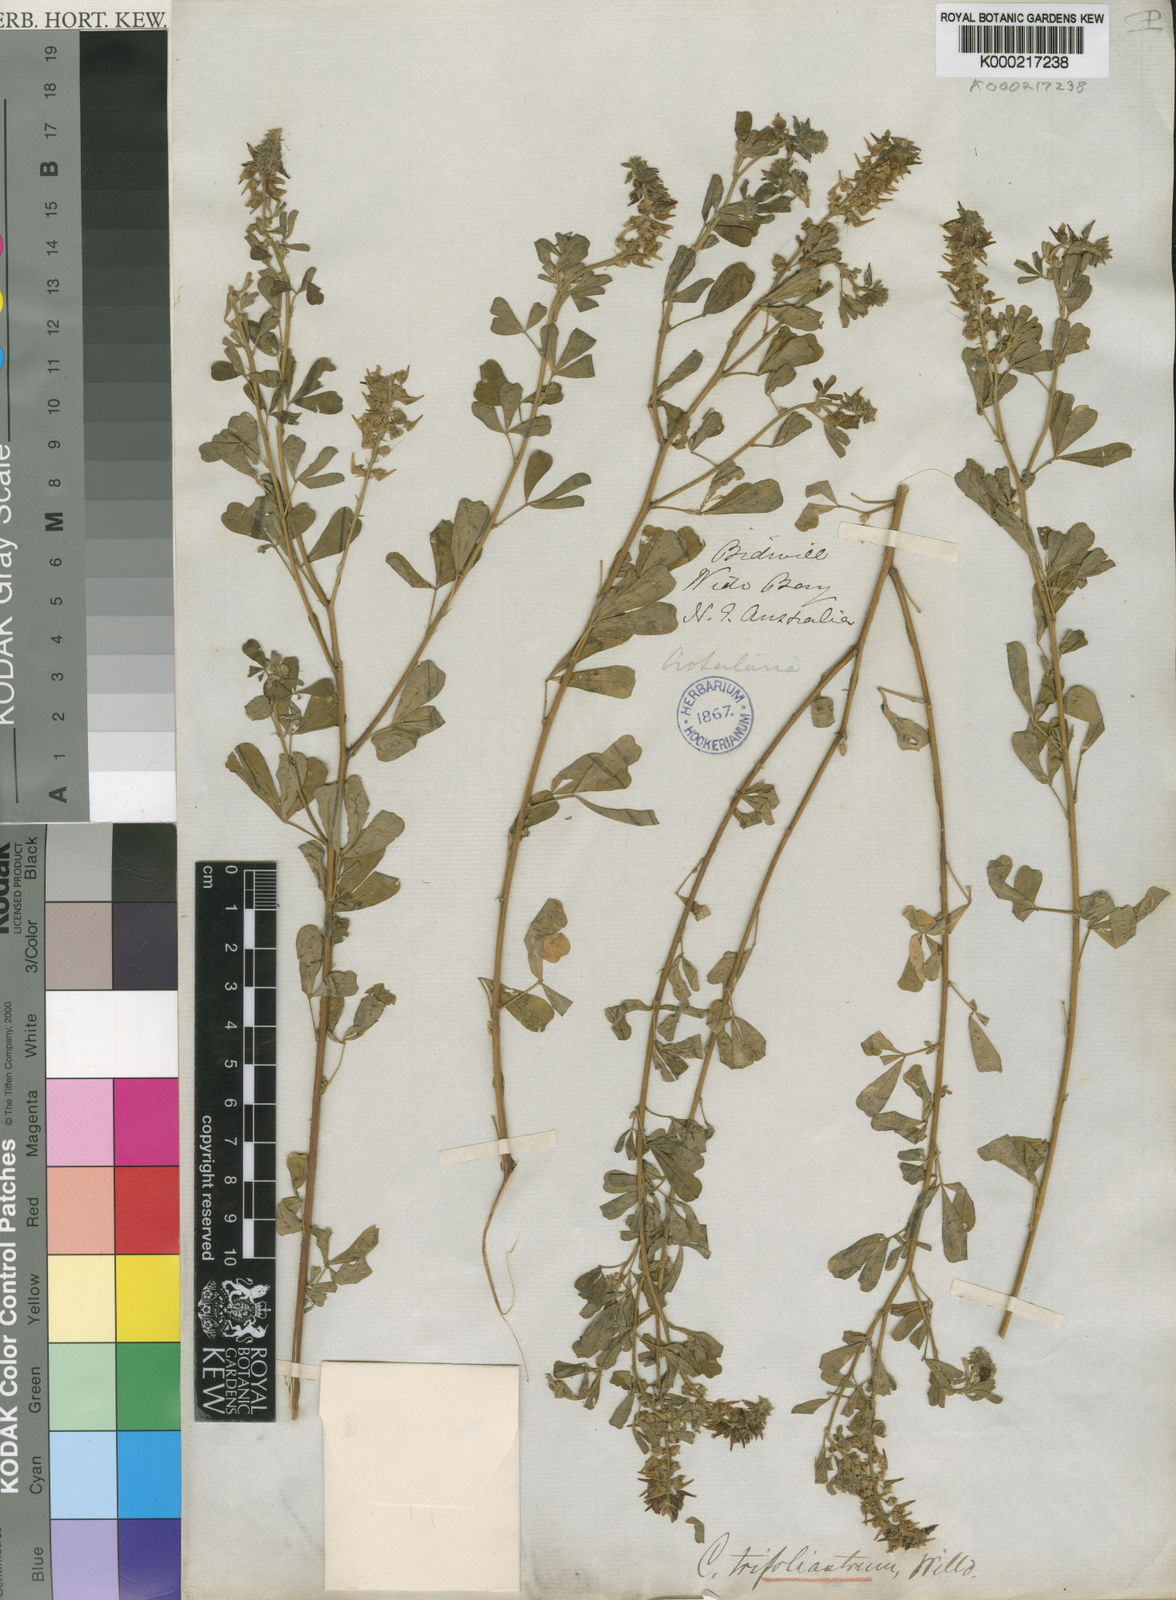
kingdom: Plantae
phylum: Tracheophyta
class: Magnoliopsida
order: Fabales
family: Fabaceae
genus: Crotalaria
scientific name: Crotalaria trifoliastrum
